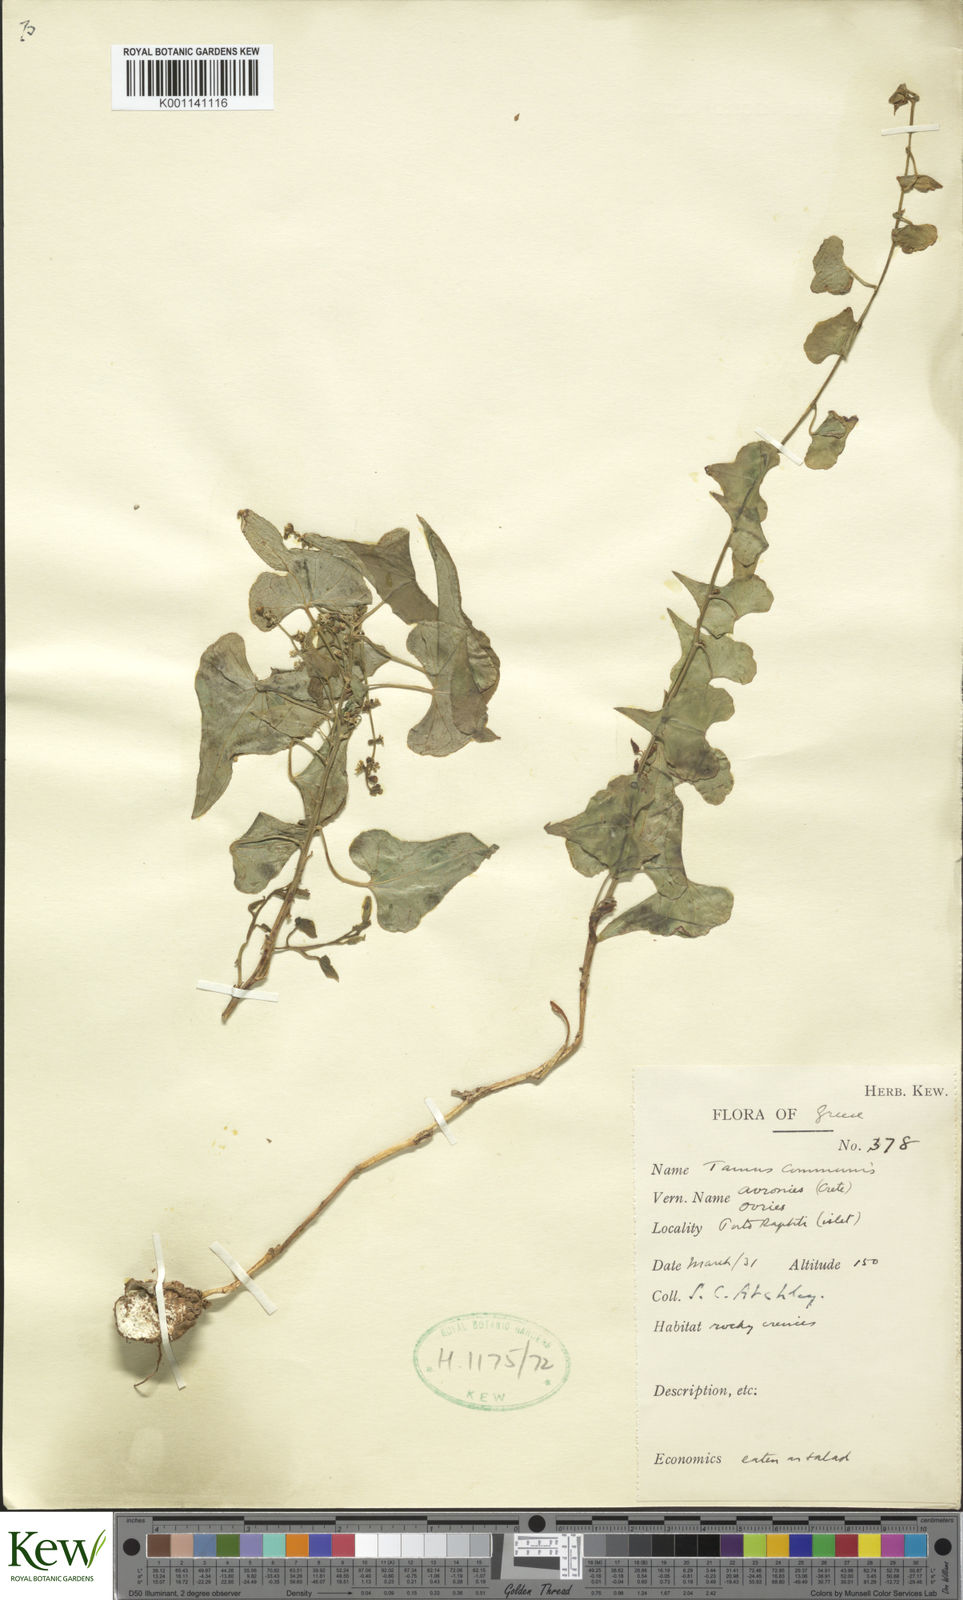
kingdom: Plantae
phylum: Tracheophyta
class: Liliopsida
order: Dioscoreales
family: Dioscoreaceae
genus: Dioscorea
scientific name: Dioscorea communis
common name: Black-bindweed
